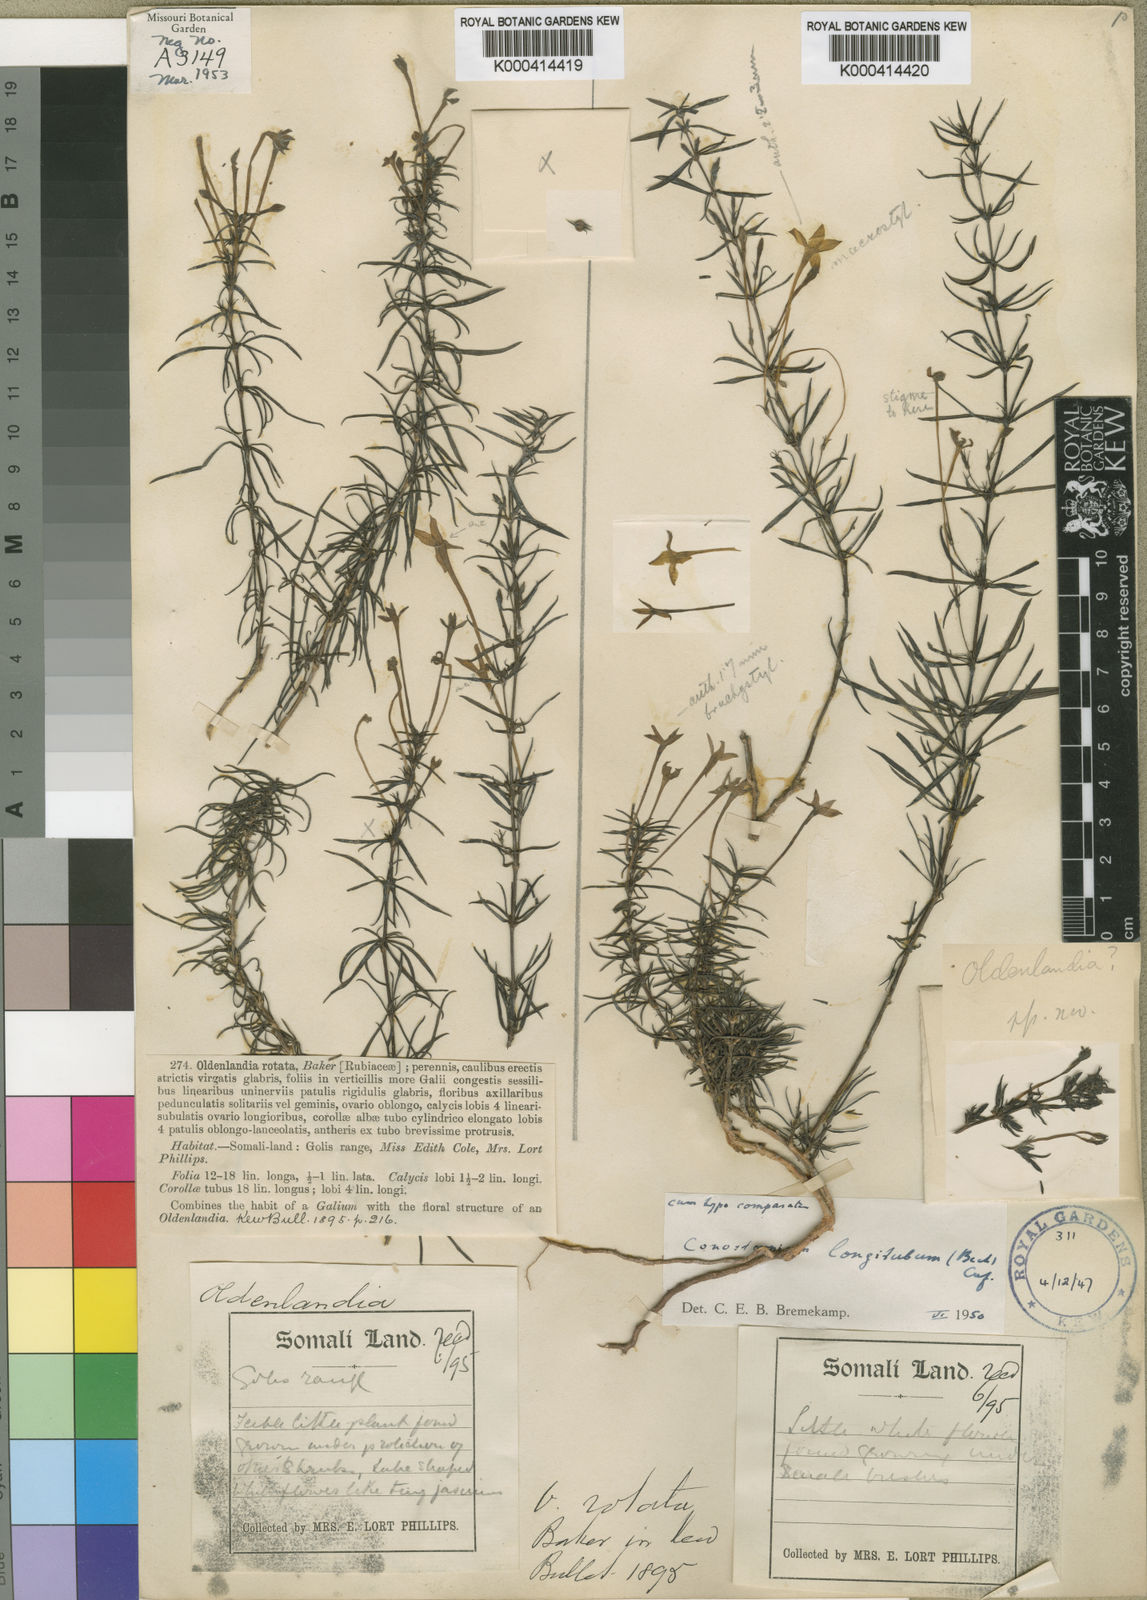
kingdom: Plantae
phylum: Tracheophyta
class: Magnoliopsida
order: Gentianales
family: Rubiaceae
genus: Conostomium
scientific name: Conostomium longitubum
